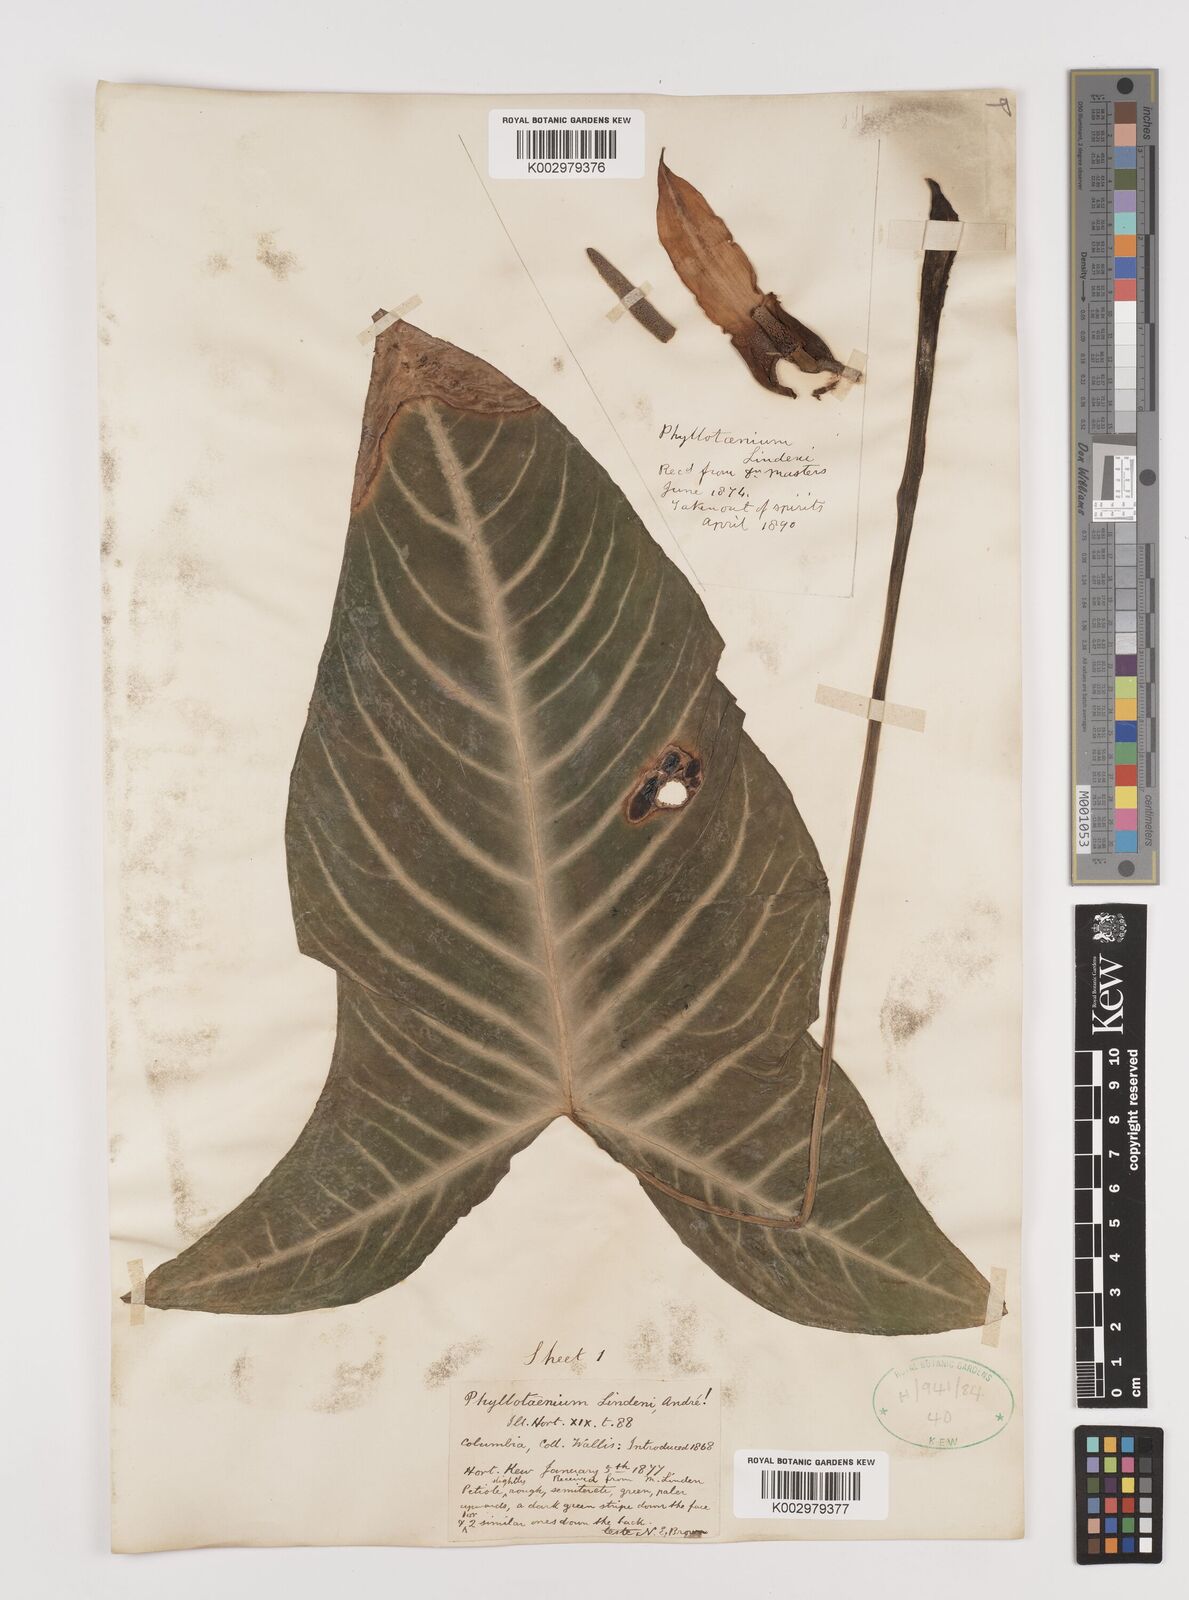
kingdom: Plantae
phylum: Tracheophyta
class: Liliopsida
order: Alismatales
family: Araceae
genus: Caladium
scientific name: Caladium
